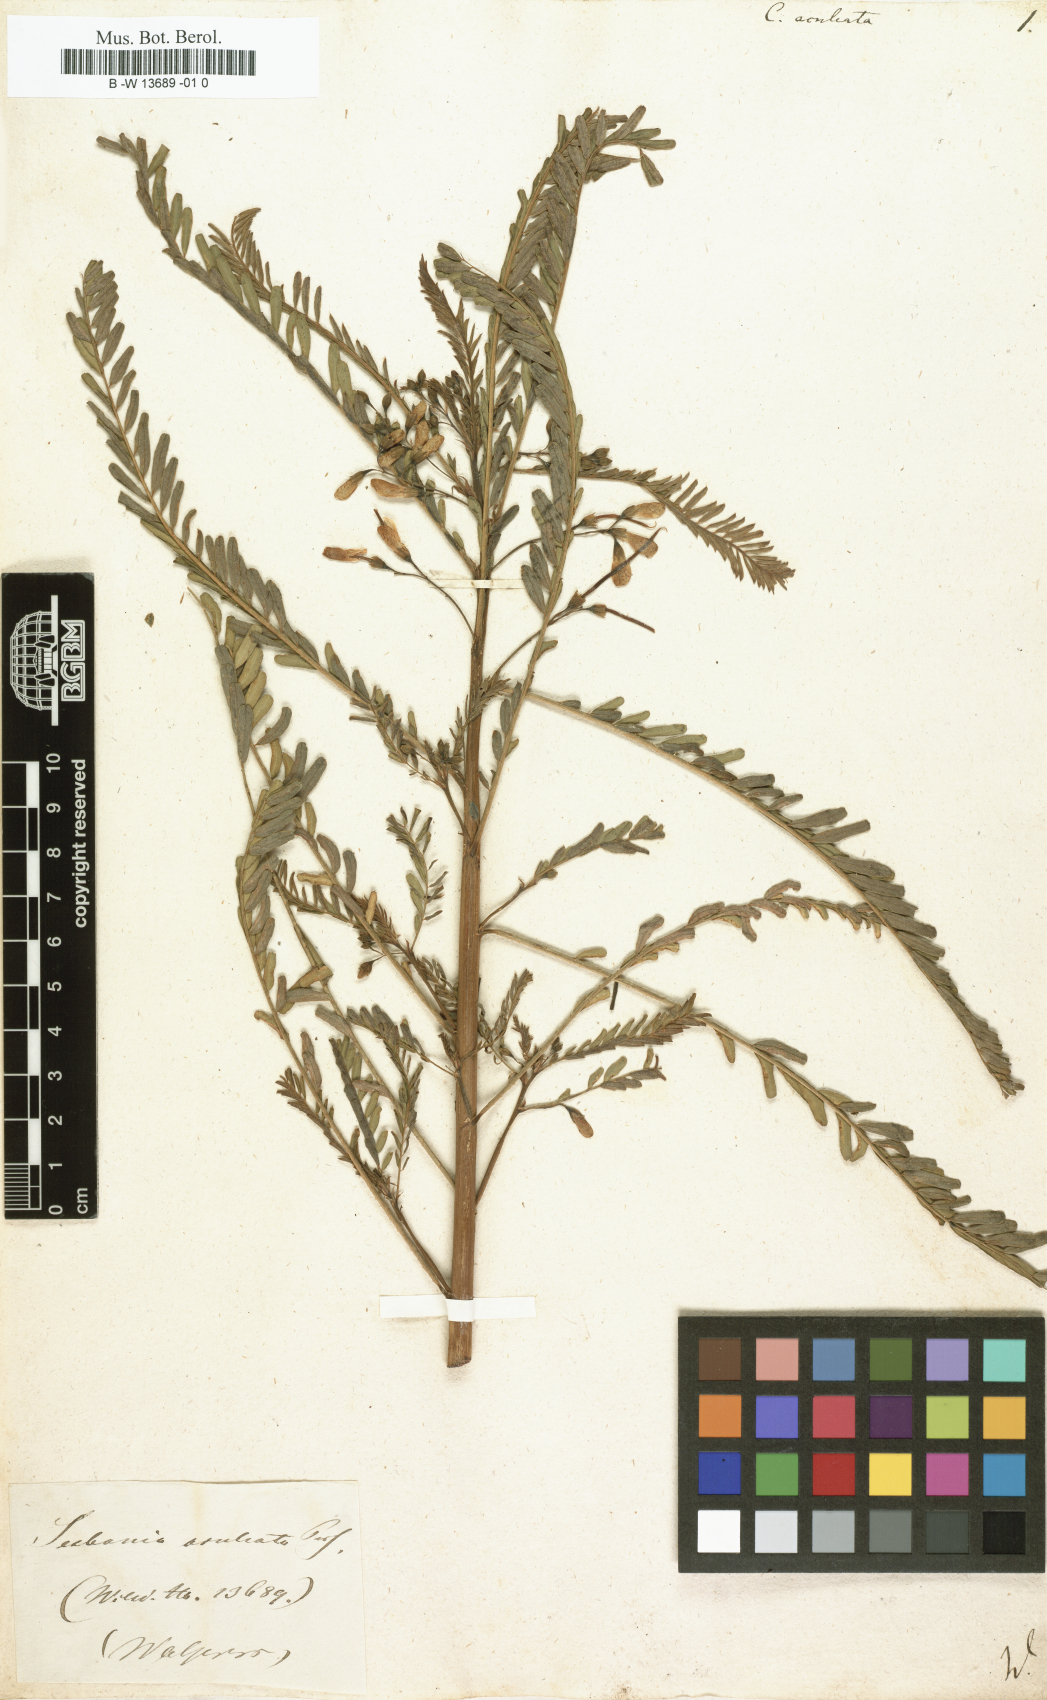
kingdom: Plantae
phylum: Tracheophyta
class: Magnoliopsida
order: Fabales
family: Fabaceae
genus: Sesbania
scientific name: Sesbania bispinosa
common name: Sesbania pea
